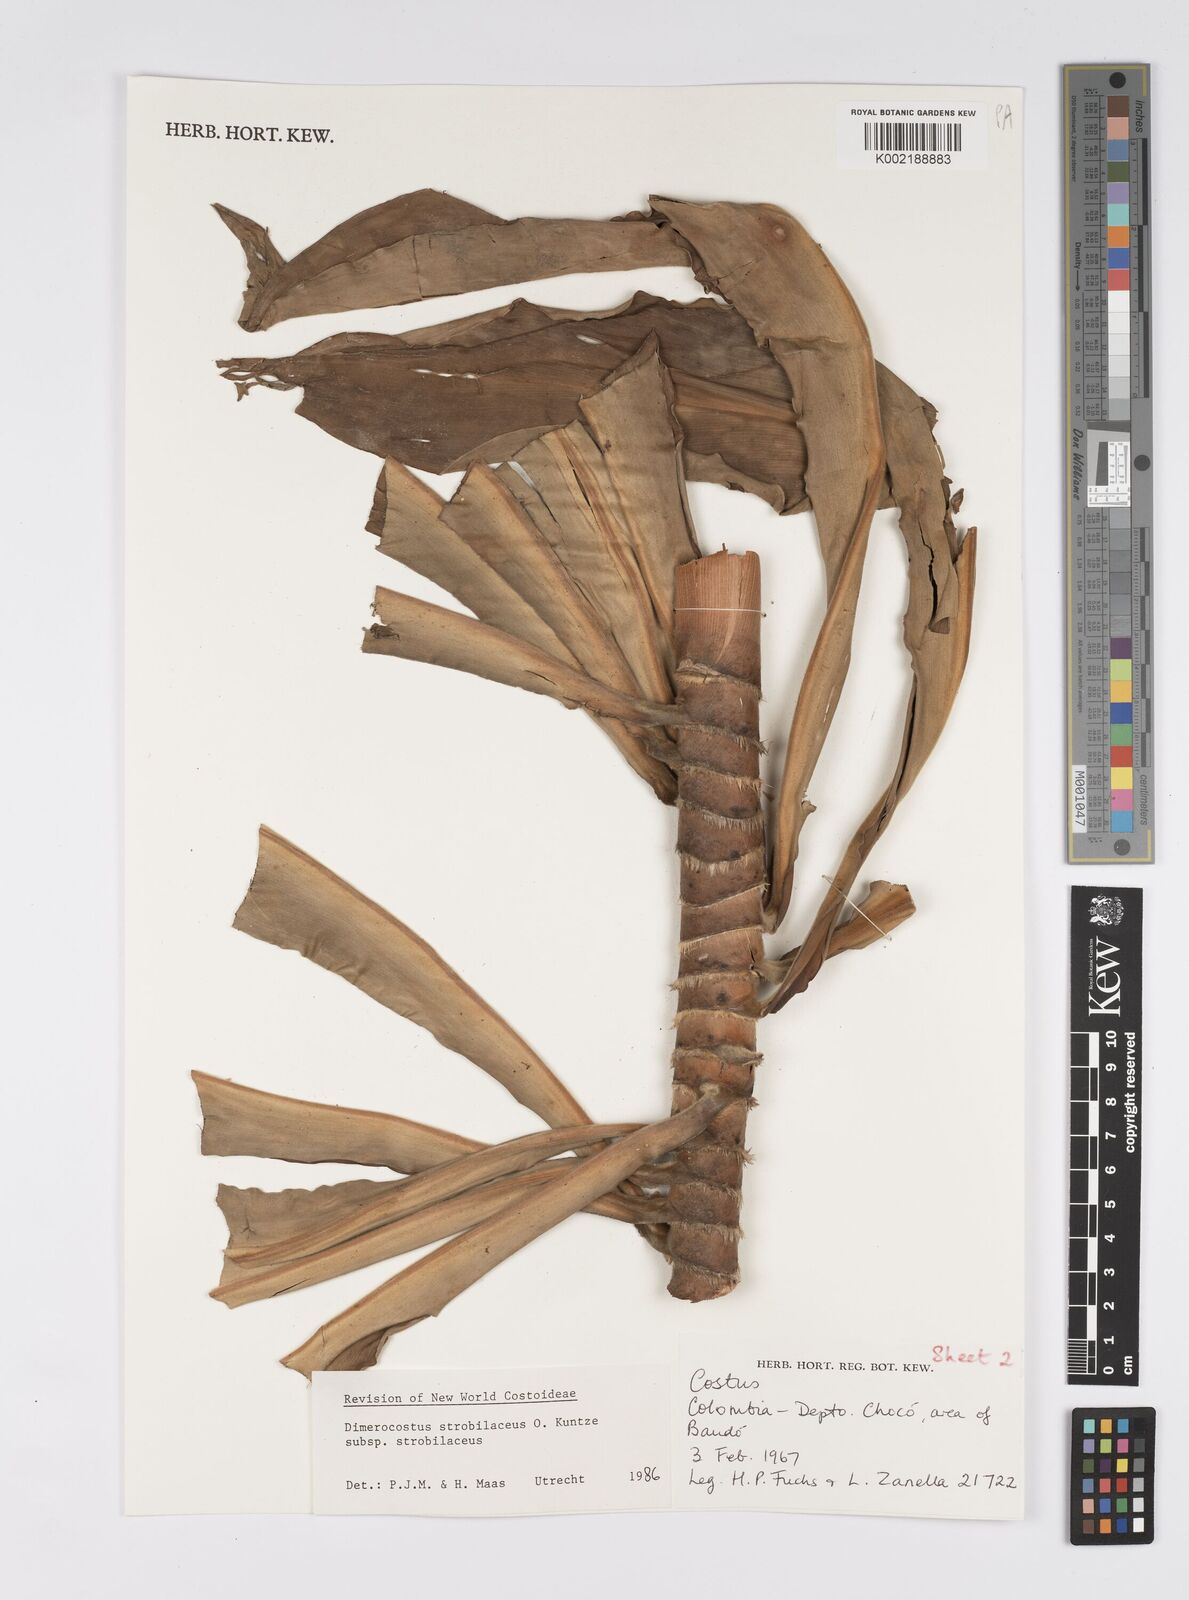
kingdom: Plantae
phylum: Tracheophyta
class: Liliopsida
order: Zingiberales
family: Costaceae
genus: Dimerocostus
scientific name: Dimerocostus strobilaceus
